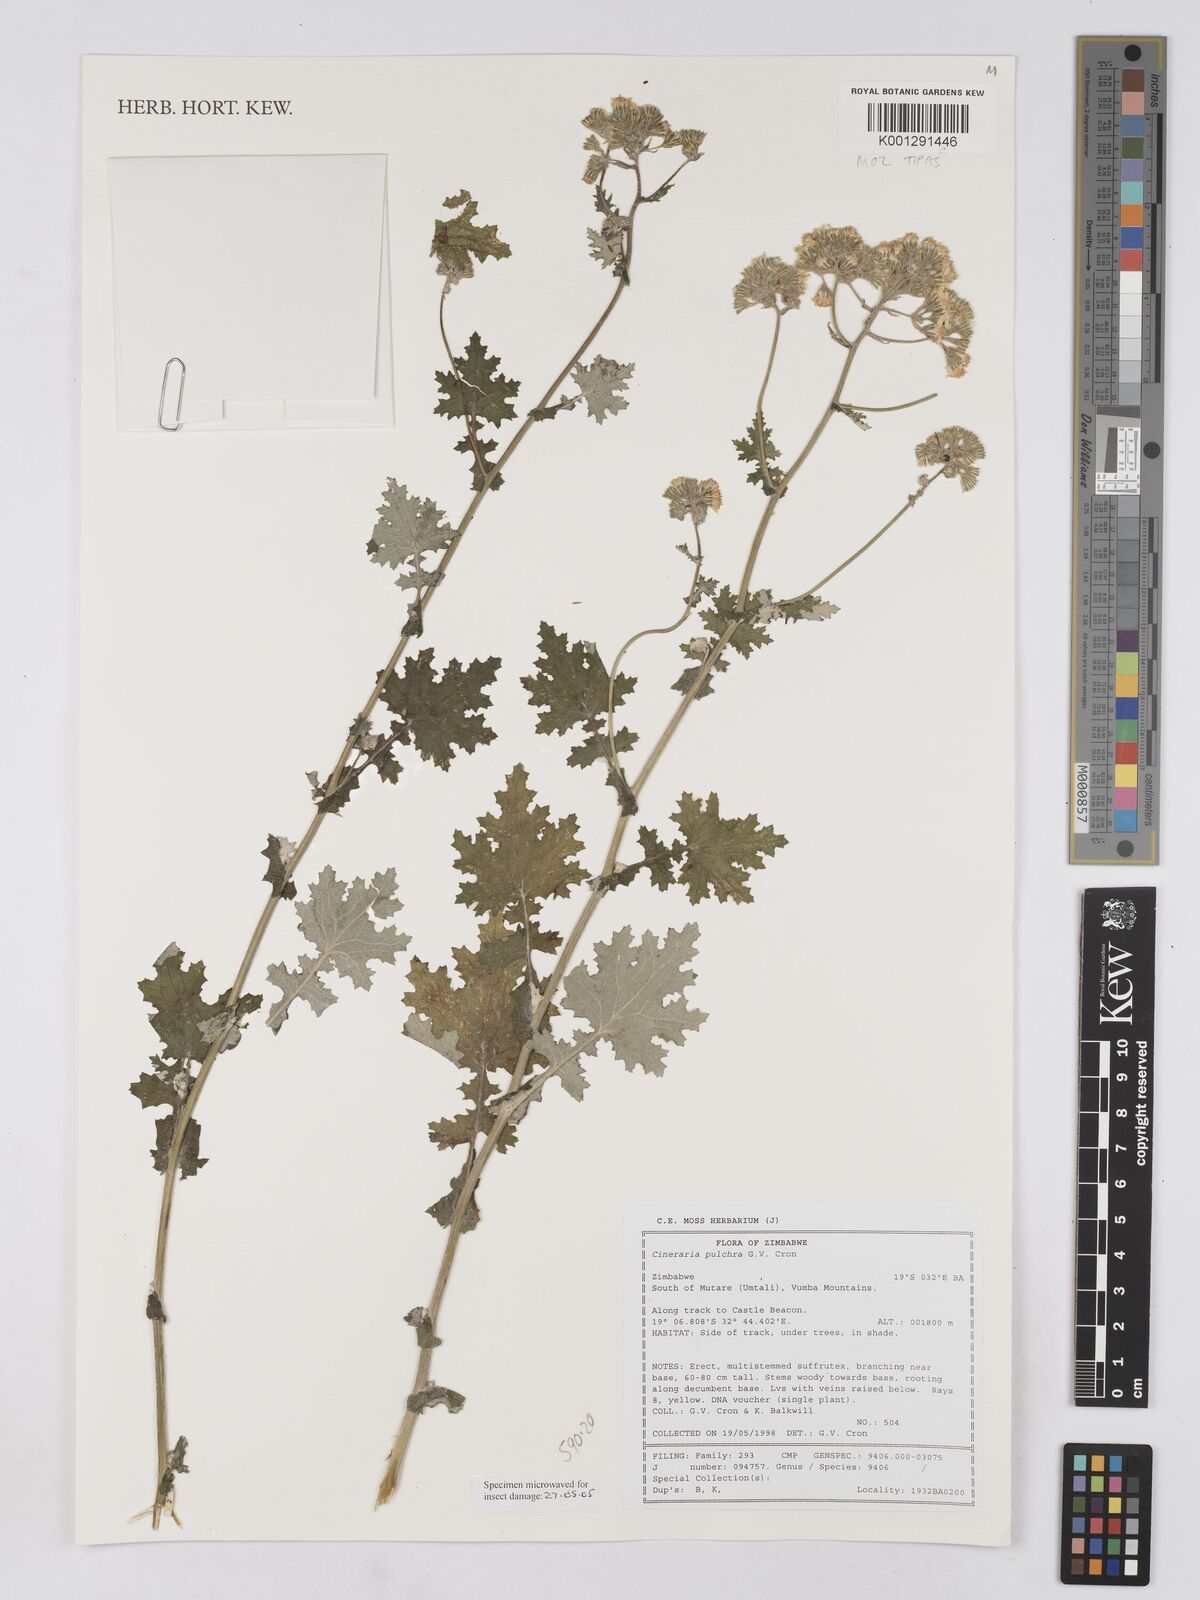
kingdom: Plantae
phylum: Tracheophyta
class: Magnoliopsida
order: Asterales
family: Asteraceae
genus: Cineraria
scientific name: Cineraria pulchra
